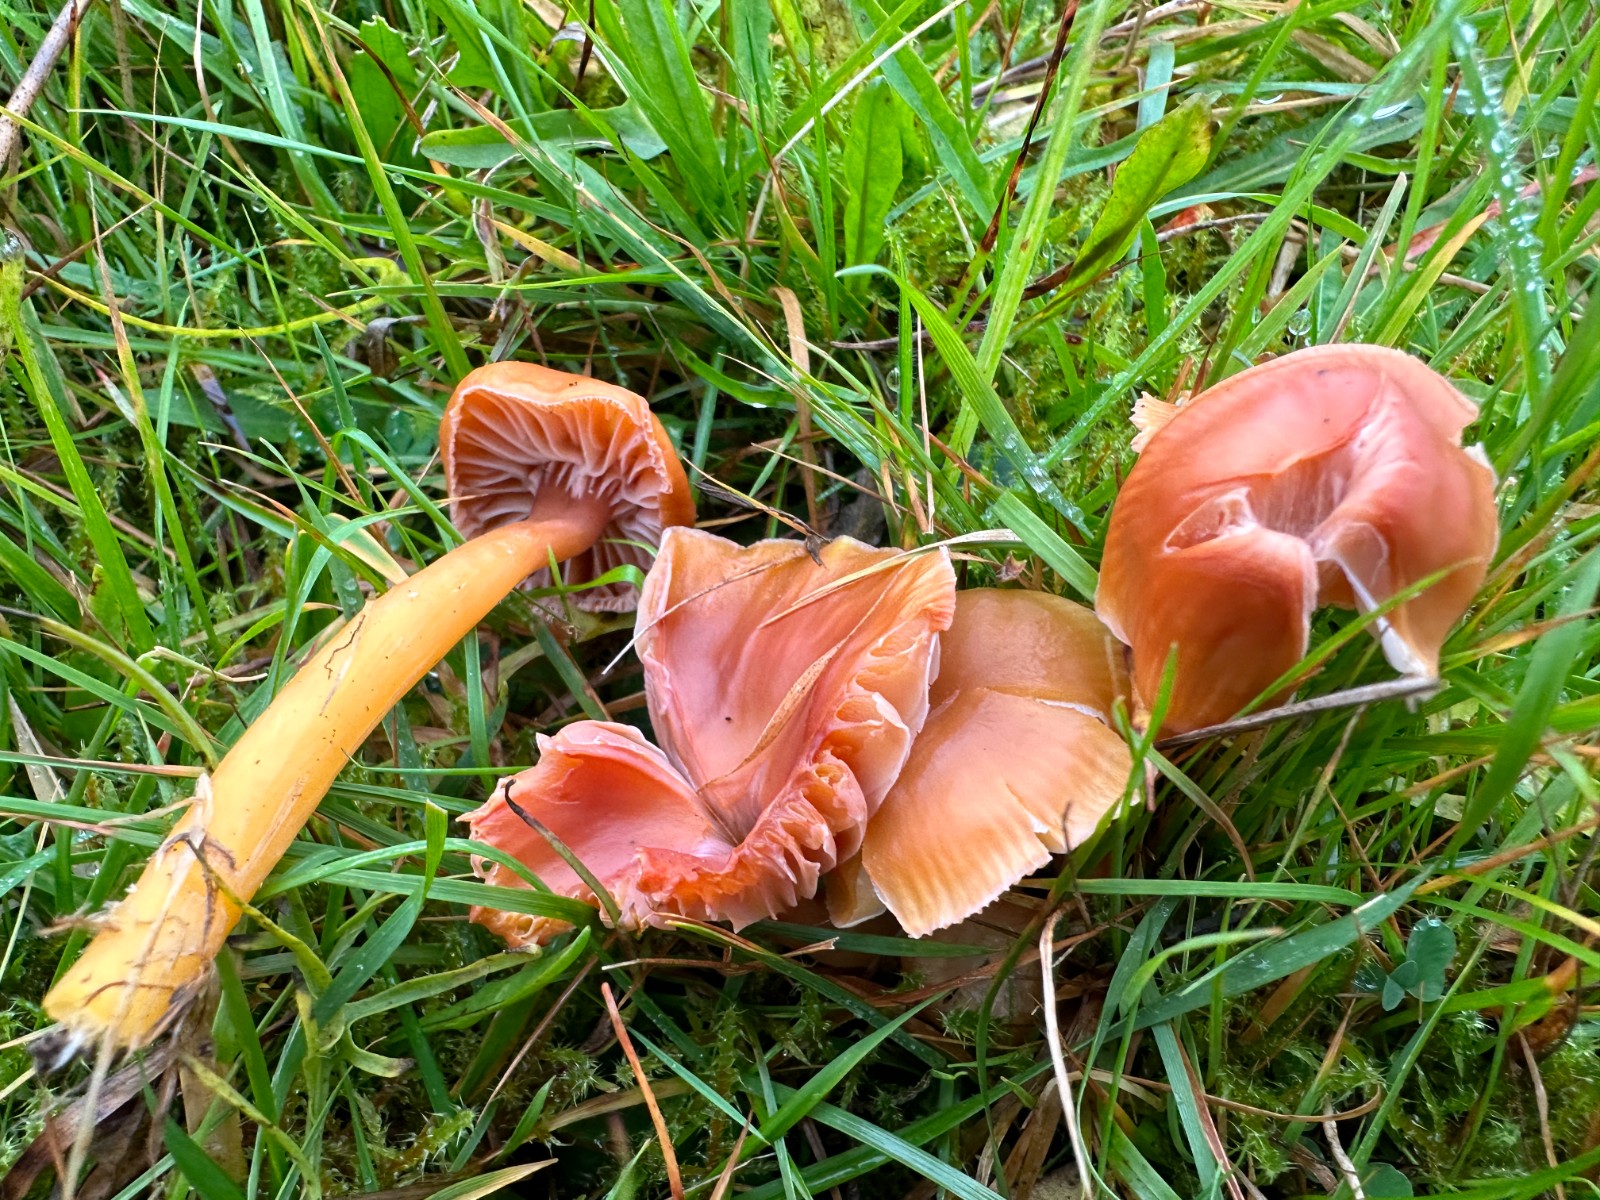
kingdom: Fungi
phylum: Basidiomycota
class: Agaricomycetes
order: Agaricales
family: Hygrophoraceae
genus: Gliophorus
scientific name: Gliophorus laetus
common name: brusk-vokshat
